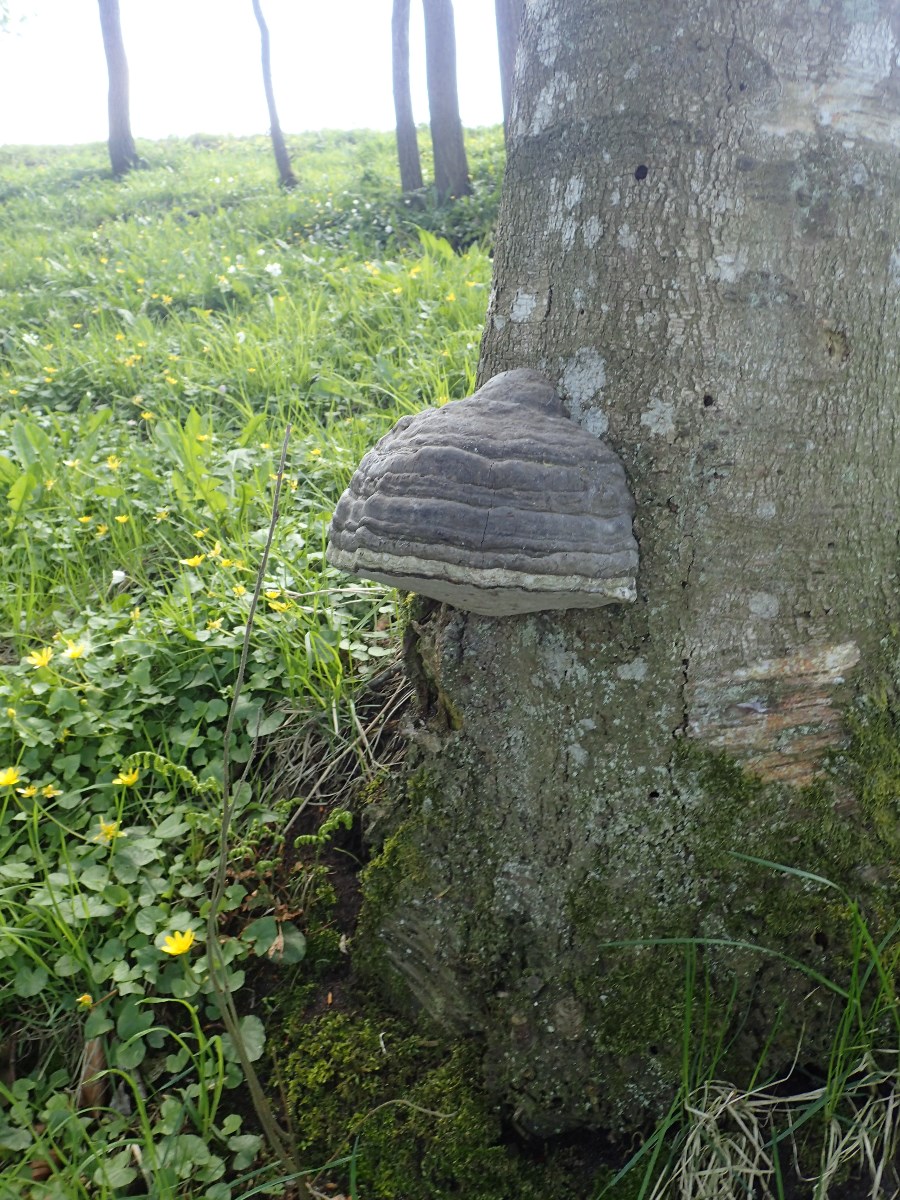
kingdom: Fungi
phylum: Basidiomycota
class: Agaricomycetes
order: Polyporales
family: Polyporaceae
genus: Fomes
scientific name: Fomes fomentarius
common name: tøndersvamp
